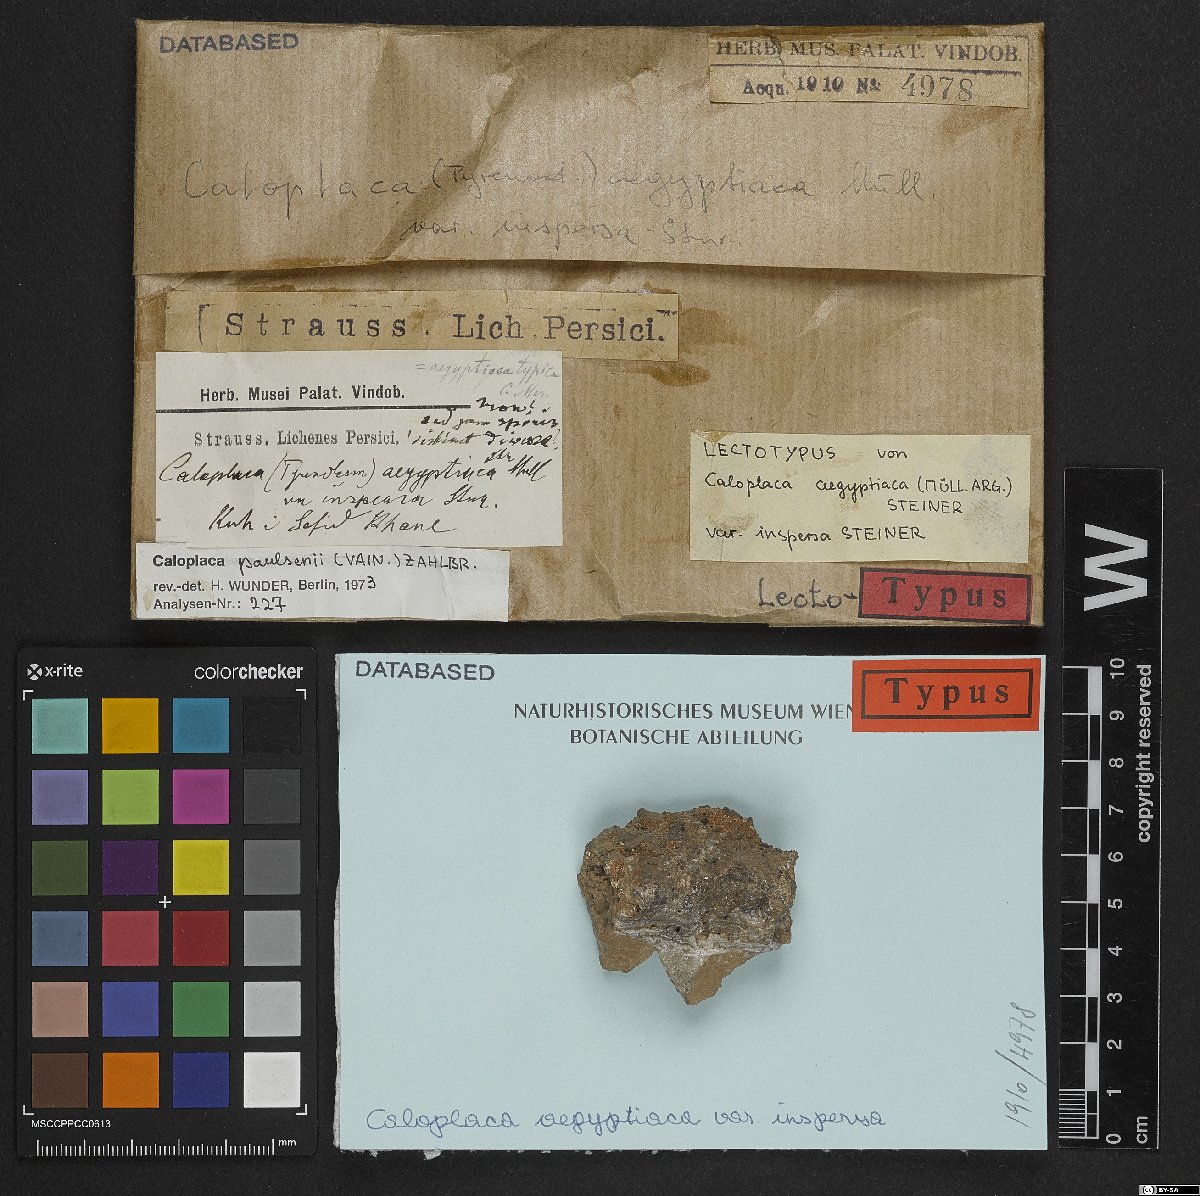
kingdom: Fungi
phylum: Ascomycota
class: Lecanoromycetes
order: Teloschistales
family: Teloschistaceae
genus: Caloplaca
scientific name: Caloplaca
